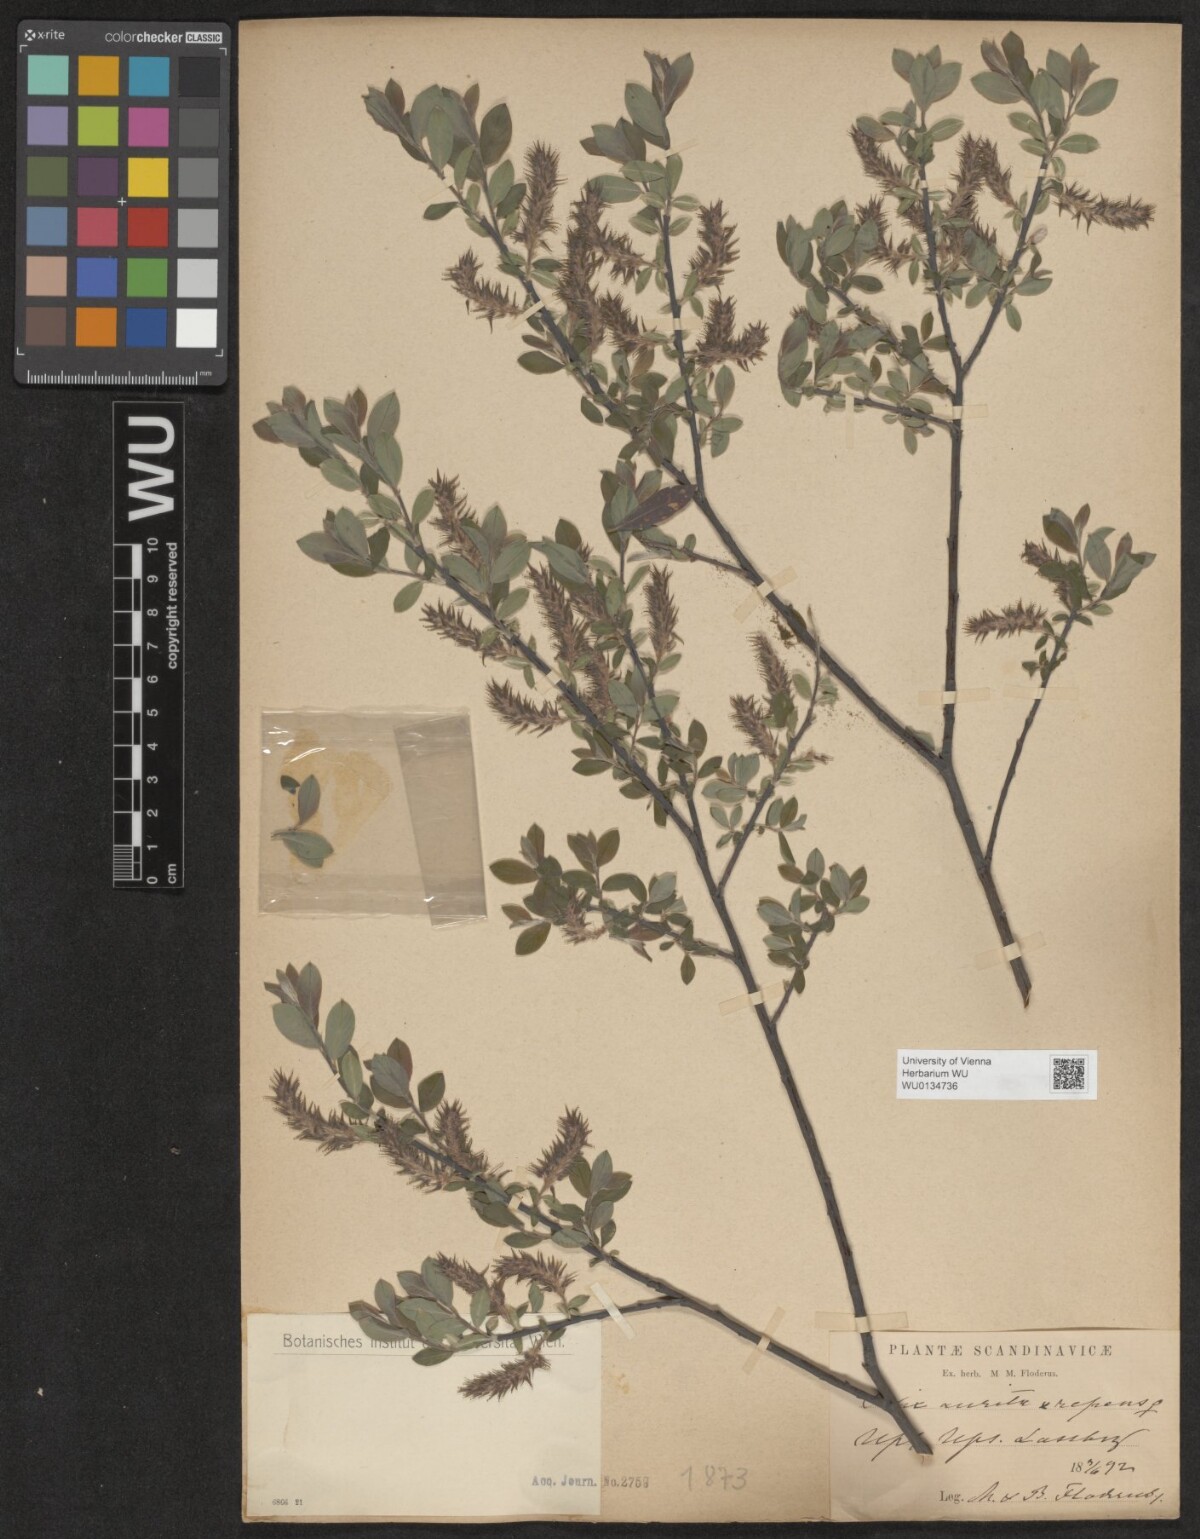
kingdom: Plantae
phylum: Tracheophyta
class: Magnoliopsida
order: Malpighiales
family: Salicaceae
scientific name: Salicaceae
